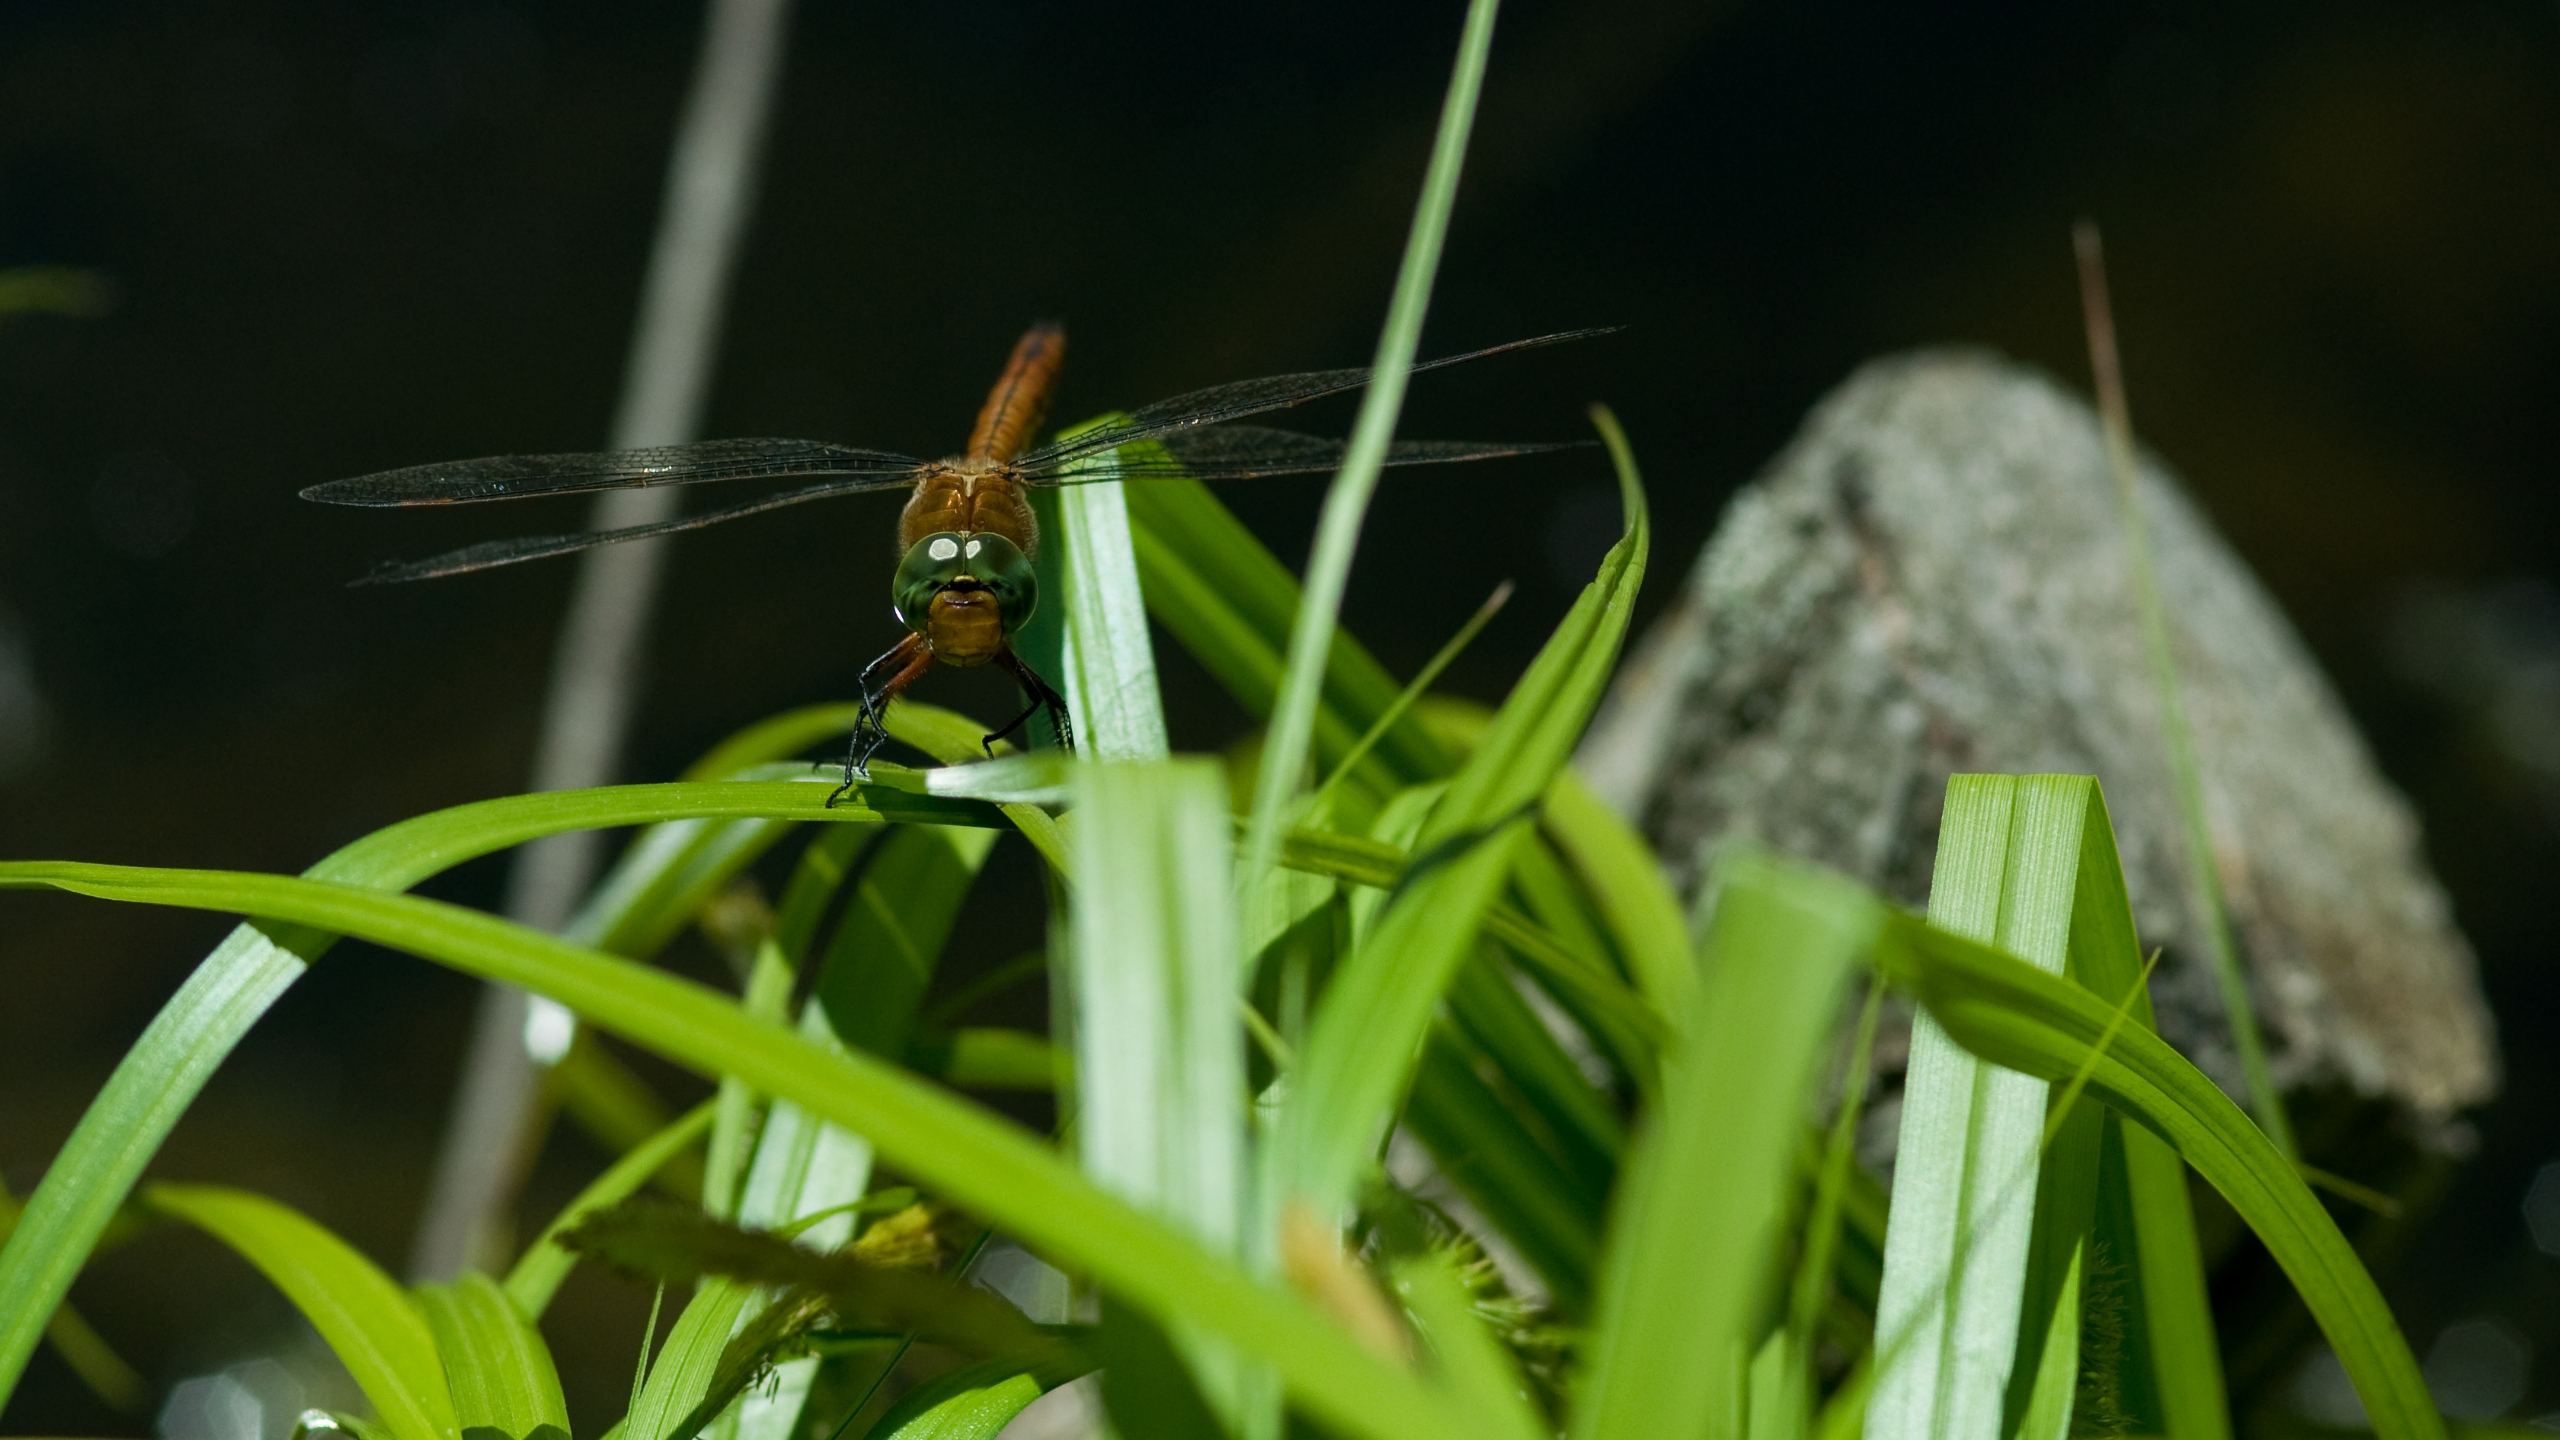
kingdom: Animalia
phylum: Arthropoda
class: Insecta
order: Odonata
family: Aeshnidae
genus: Aeshna
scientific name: Aeshna isoceles
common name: Kileplet-mosaikguldsmed
